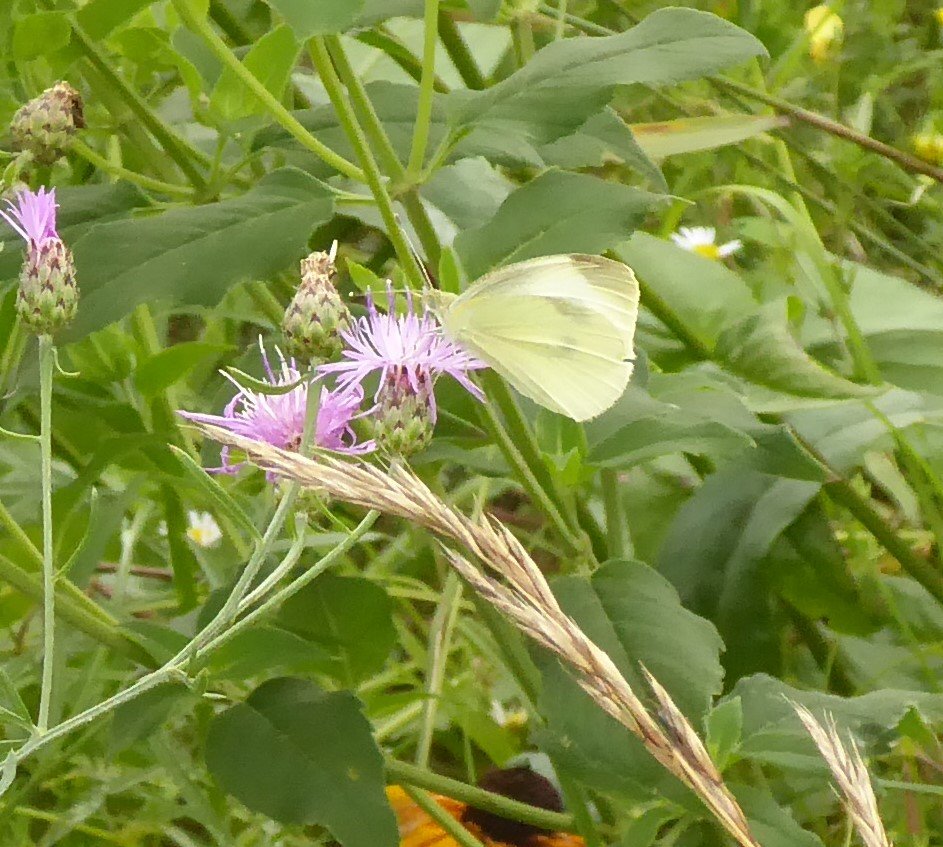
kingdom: Animalia
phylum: Arthropoda
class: Insecta
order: Lepidoptera
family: Pieridae
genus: Pieris
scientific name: Pieris rapae
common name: Cabbage White
